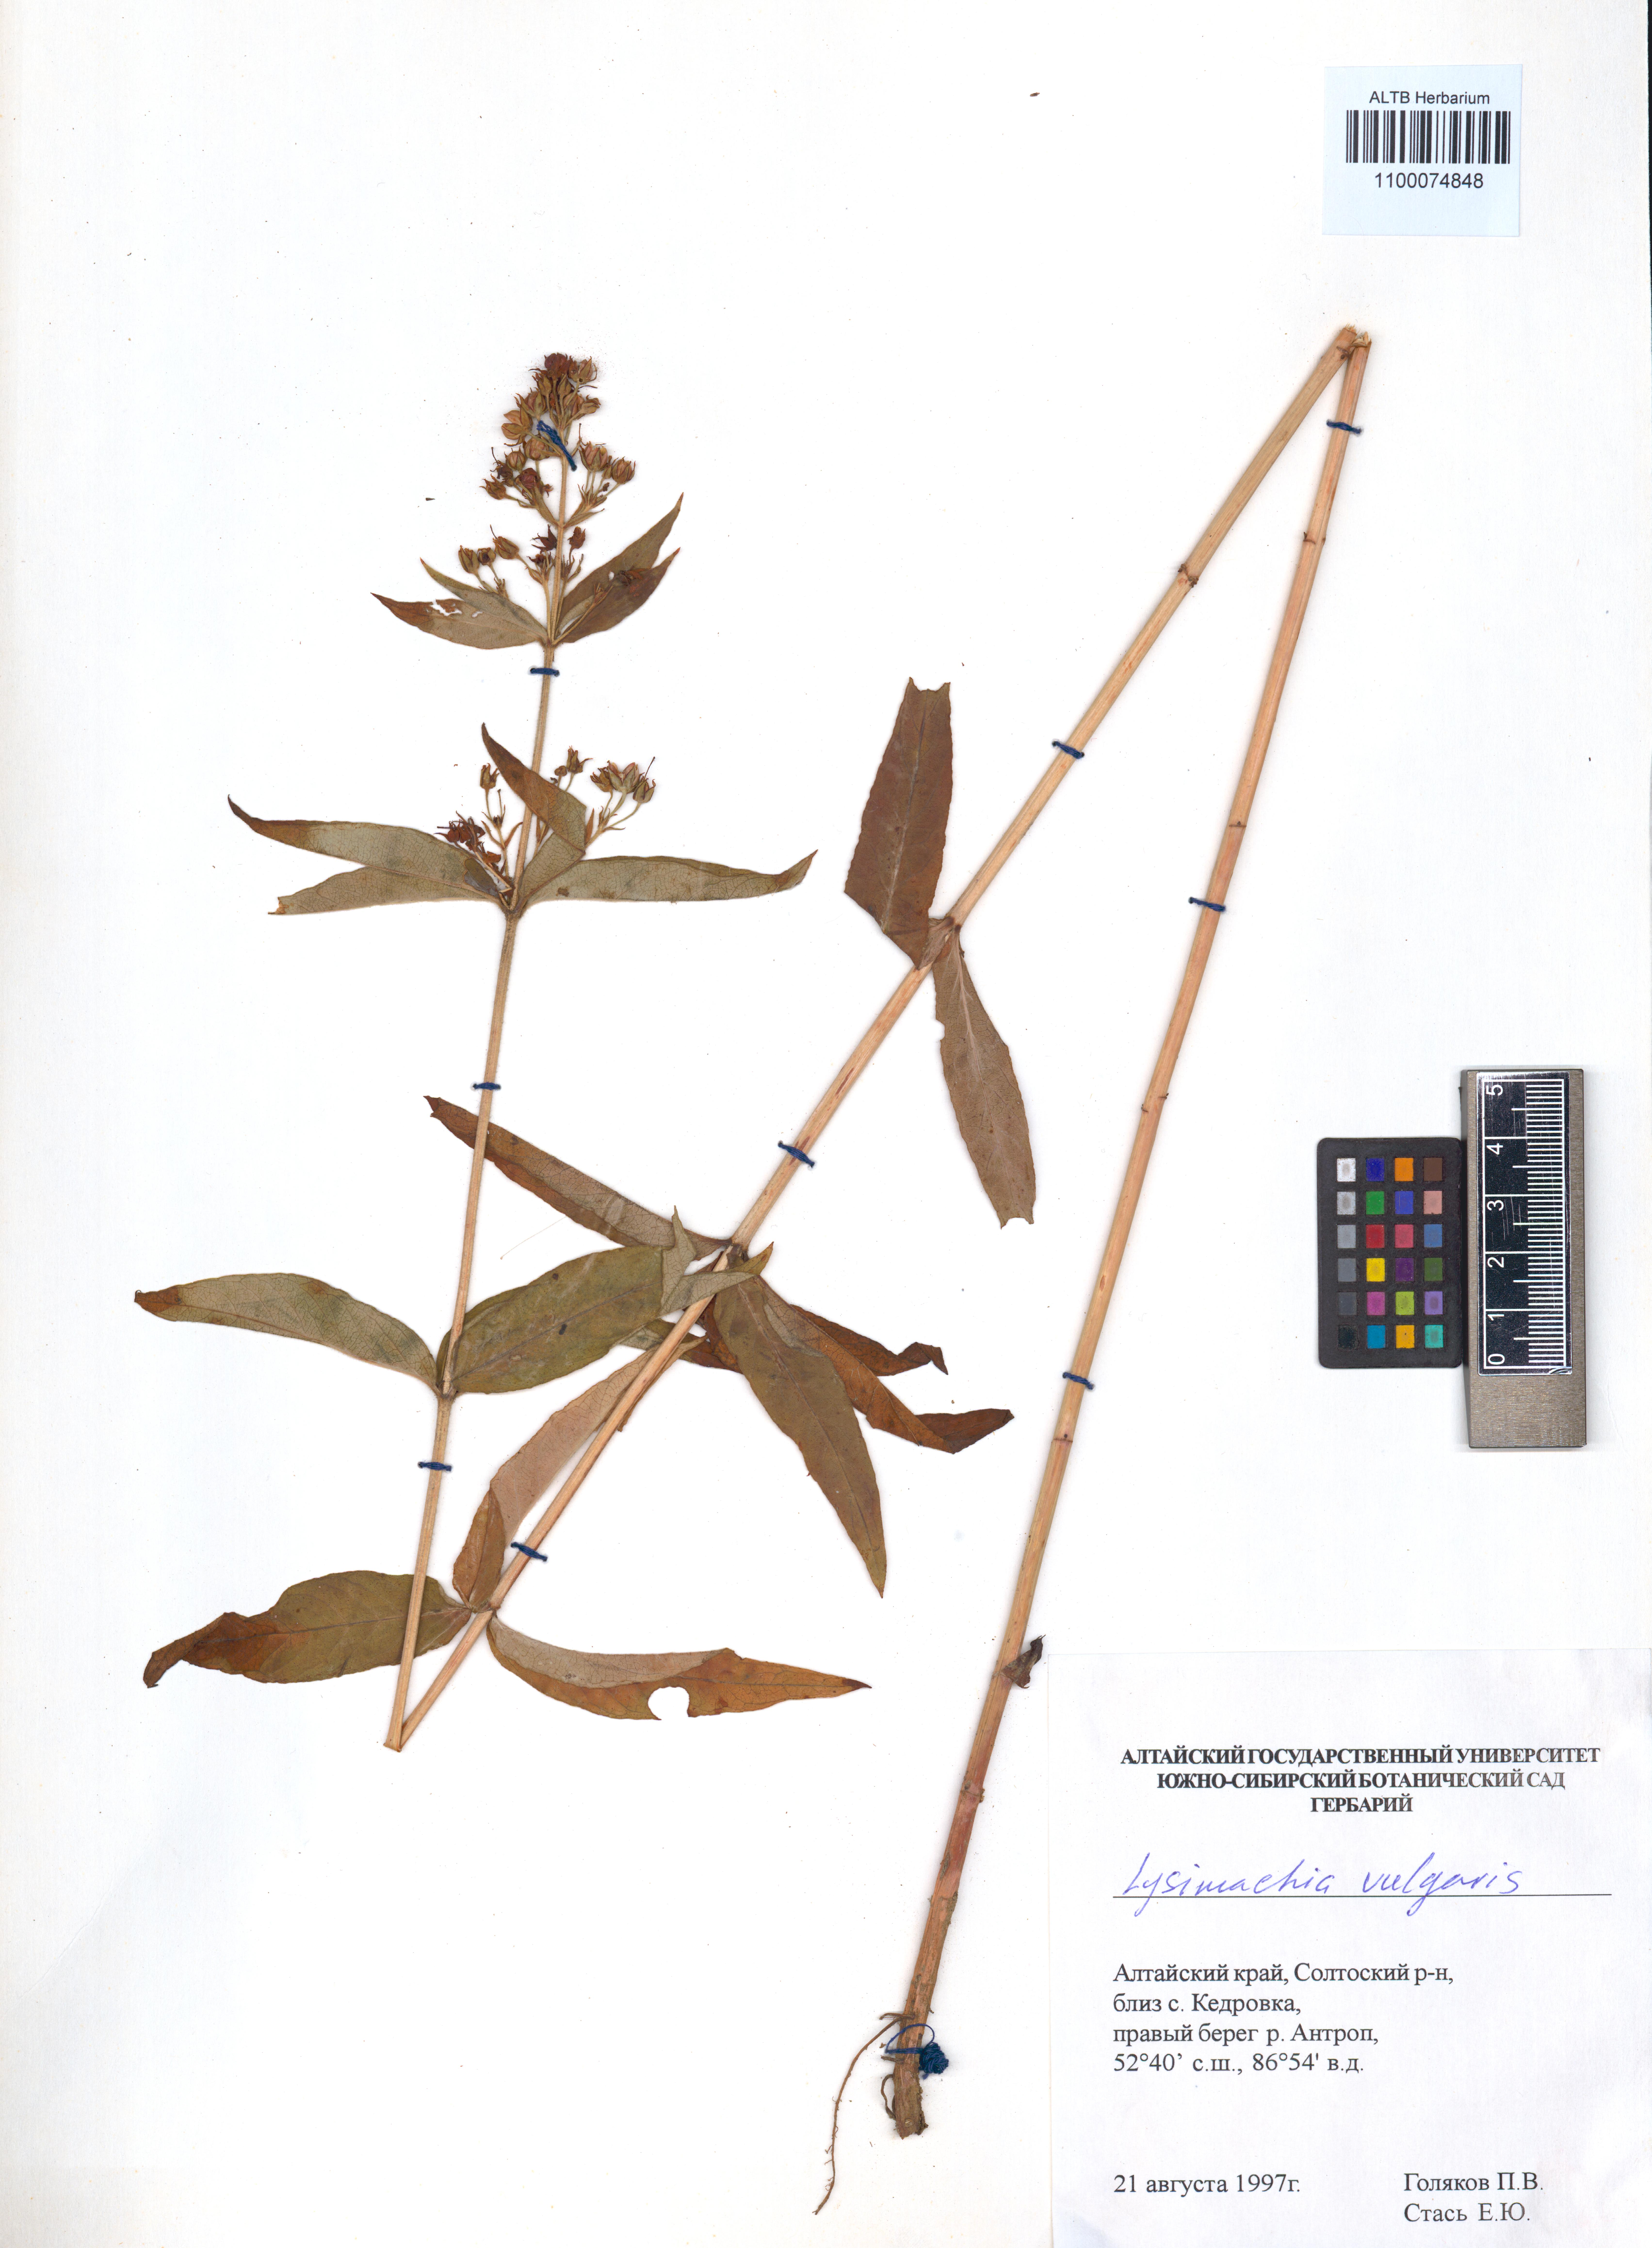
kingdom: Plantae
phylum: Tracheophyta
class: Magnoliopsida
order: Ericales
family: Primulaceae
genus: Lysimachia
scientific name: Lysimachia vulgaris
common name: Yellow loosestrife
